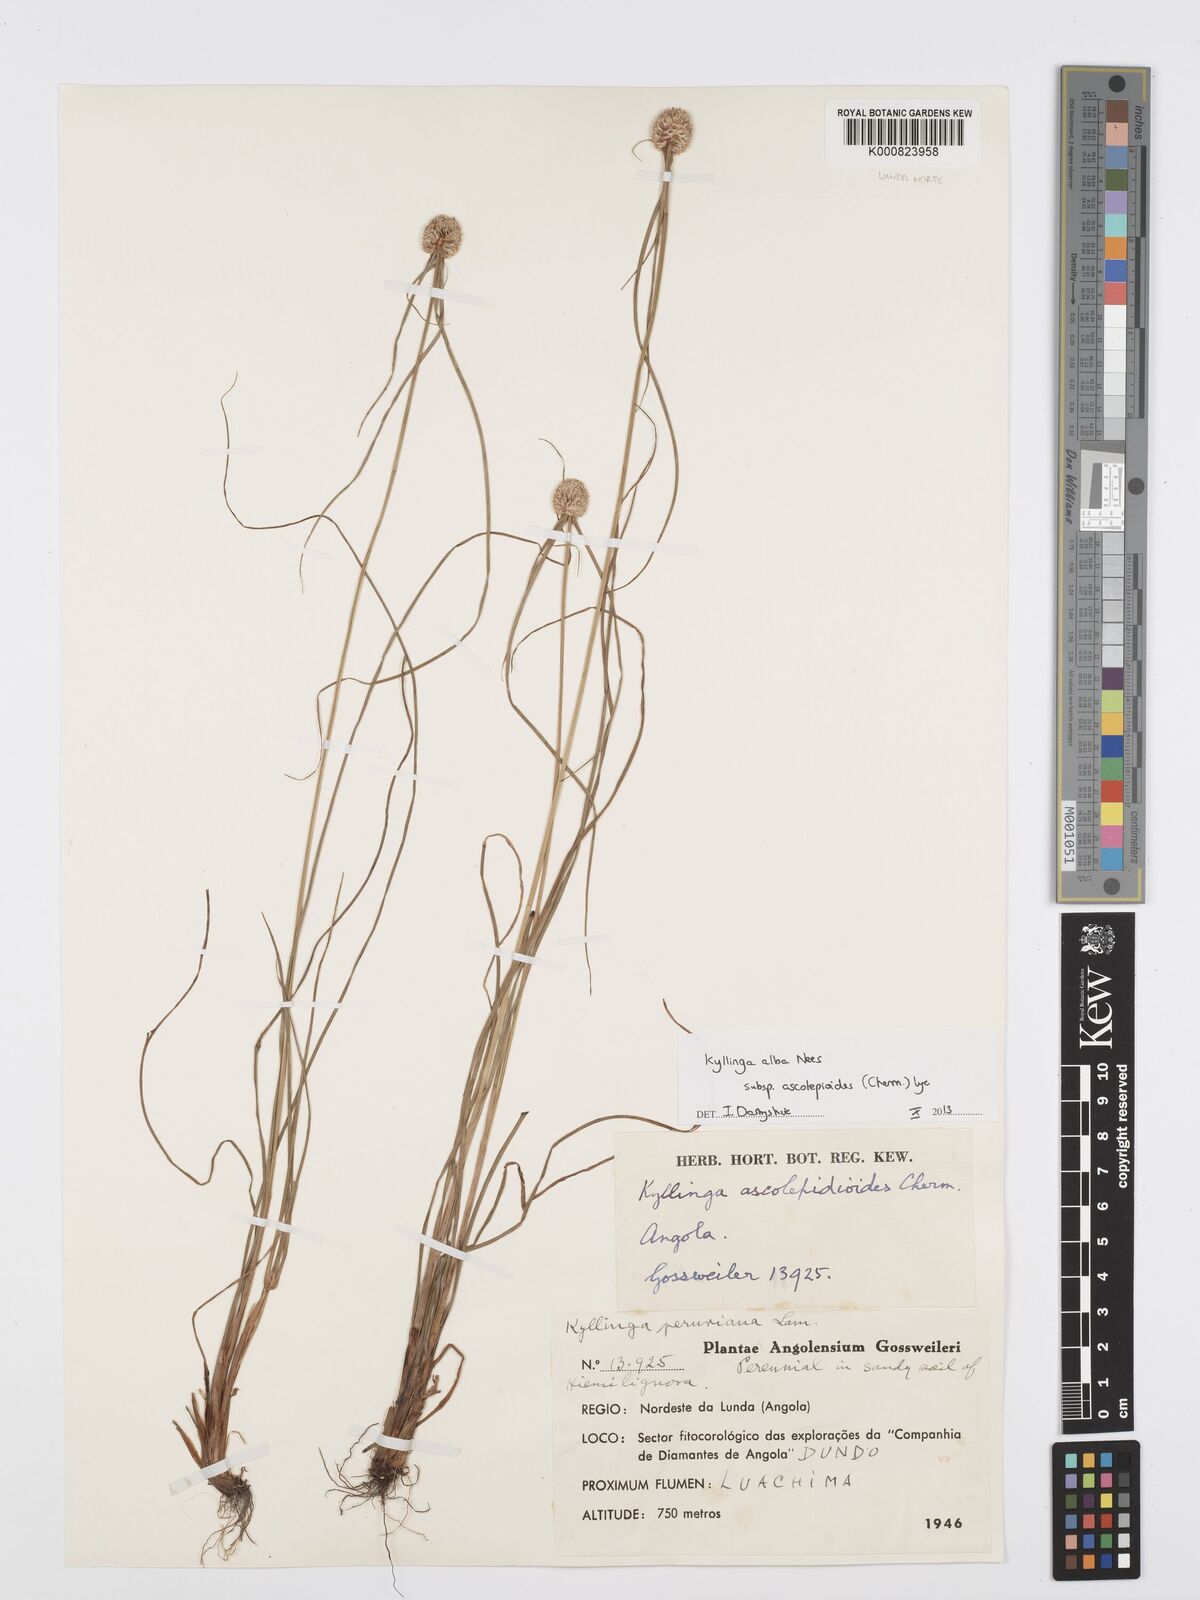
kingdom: Plantae
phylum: Tracheophyta
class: Liliopsida
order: Poales
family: Cyperaceae
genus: Cyperus
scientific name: Cyperus
